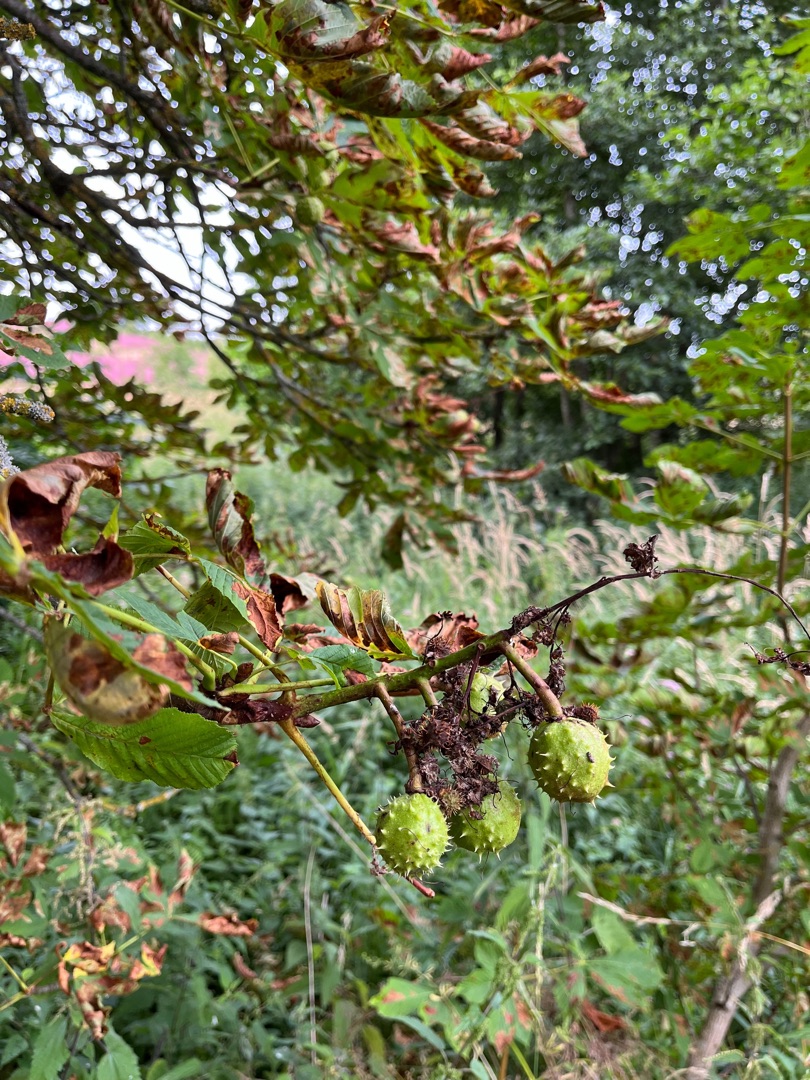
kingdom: Plantae
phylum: Tracheophyta
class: Magnoliopsida
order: Sapindales
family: Sapindaceae
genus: Aesculus
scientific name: Aesculus hippocastanum
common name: Hestekastanie
